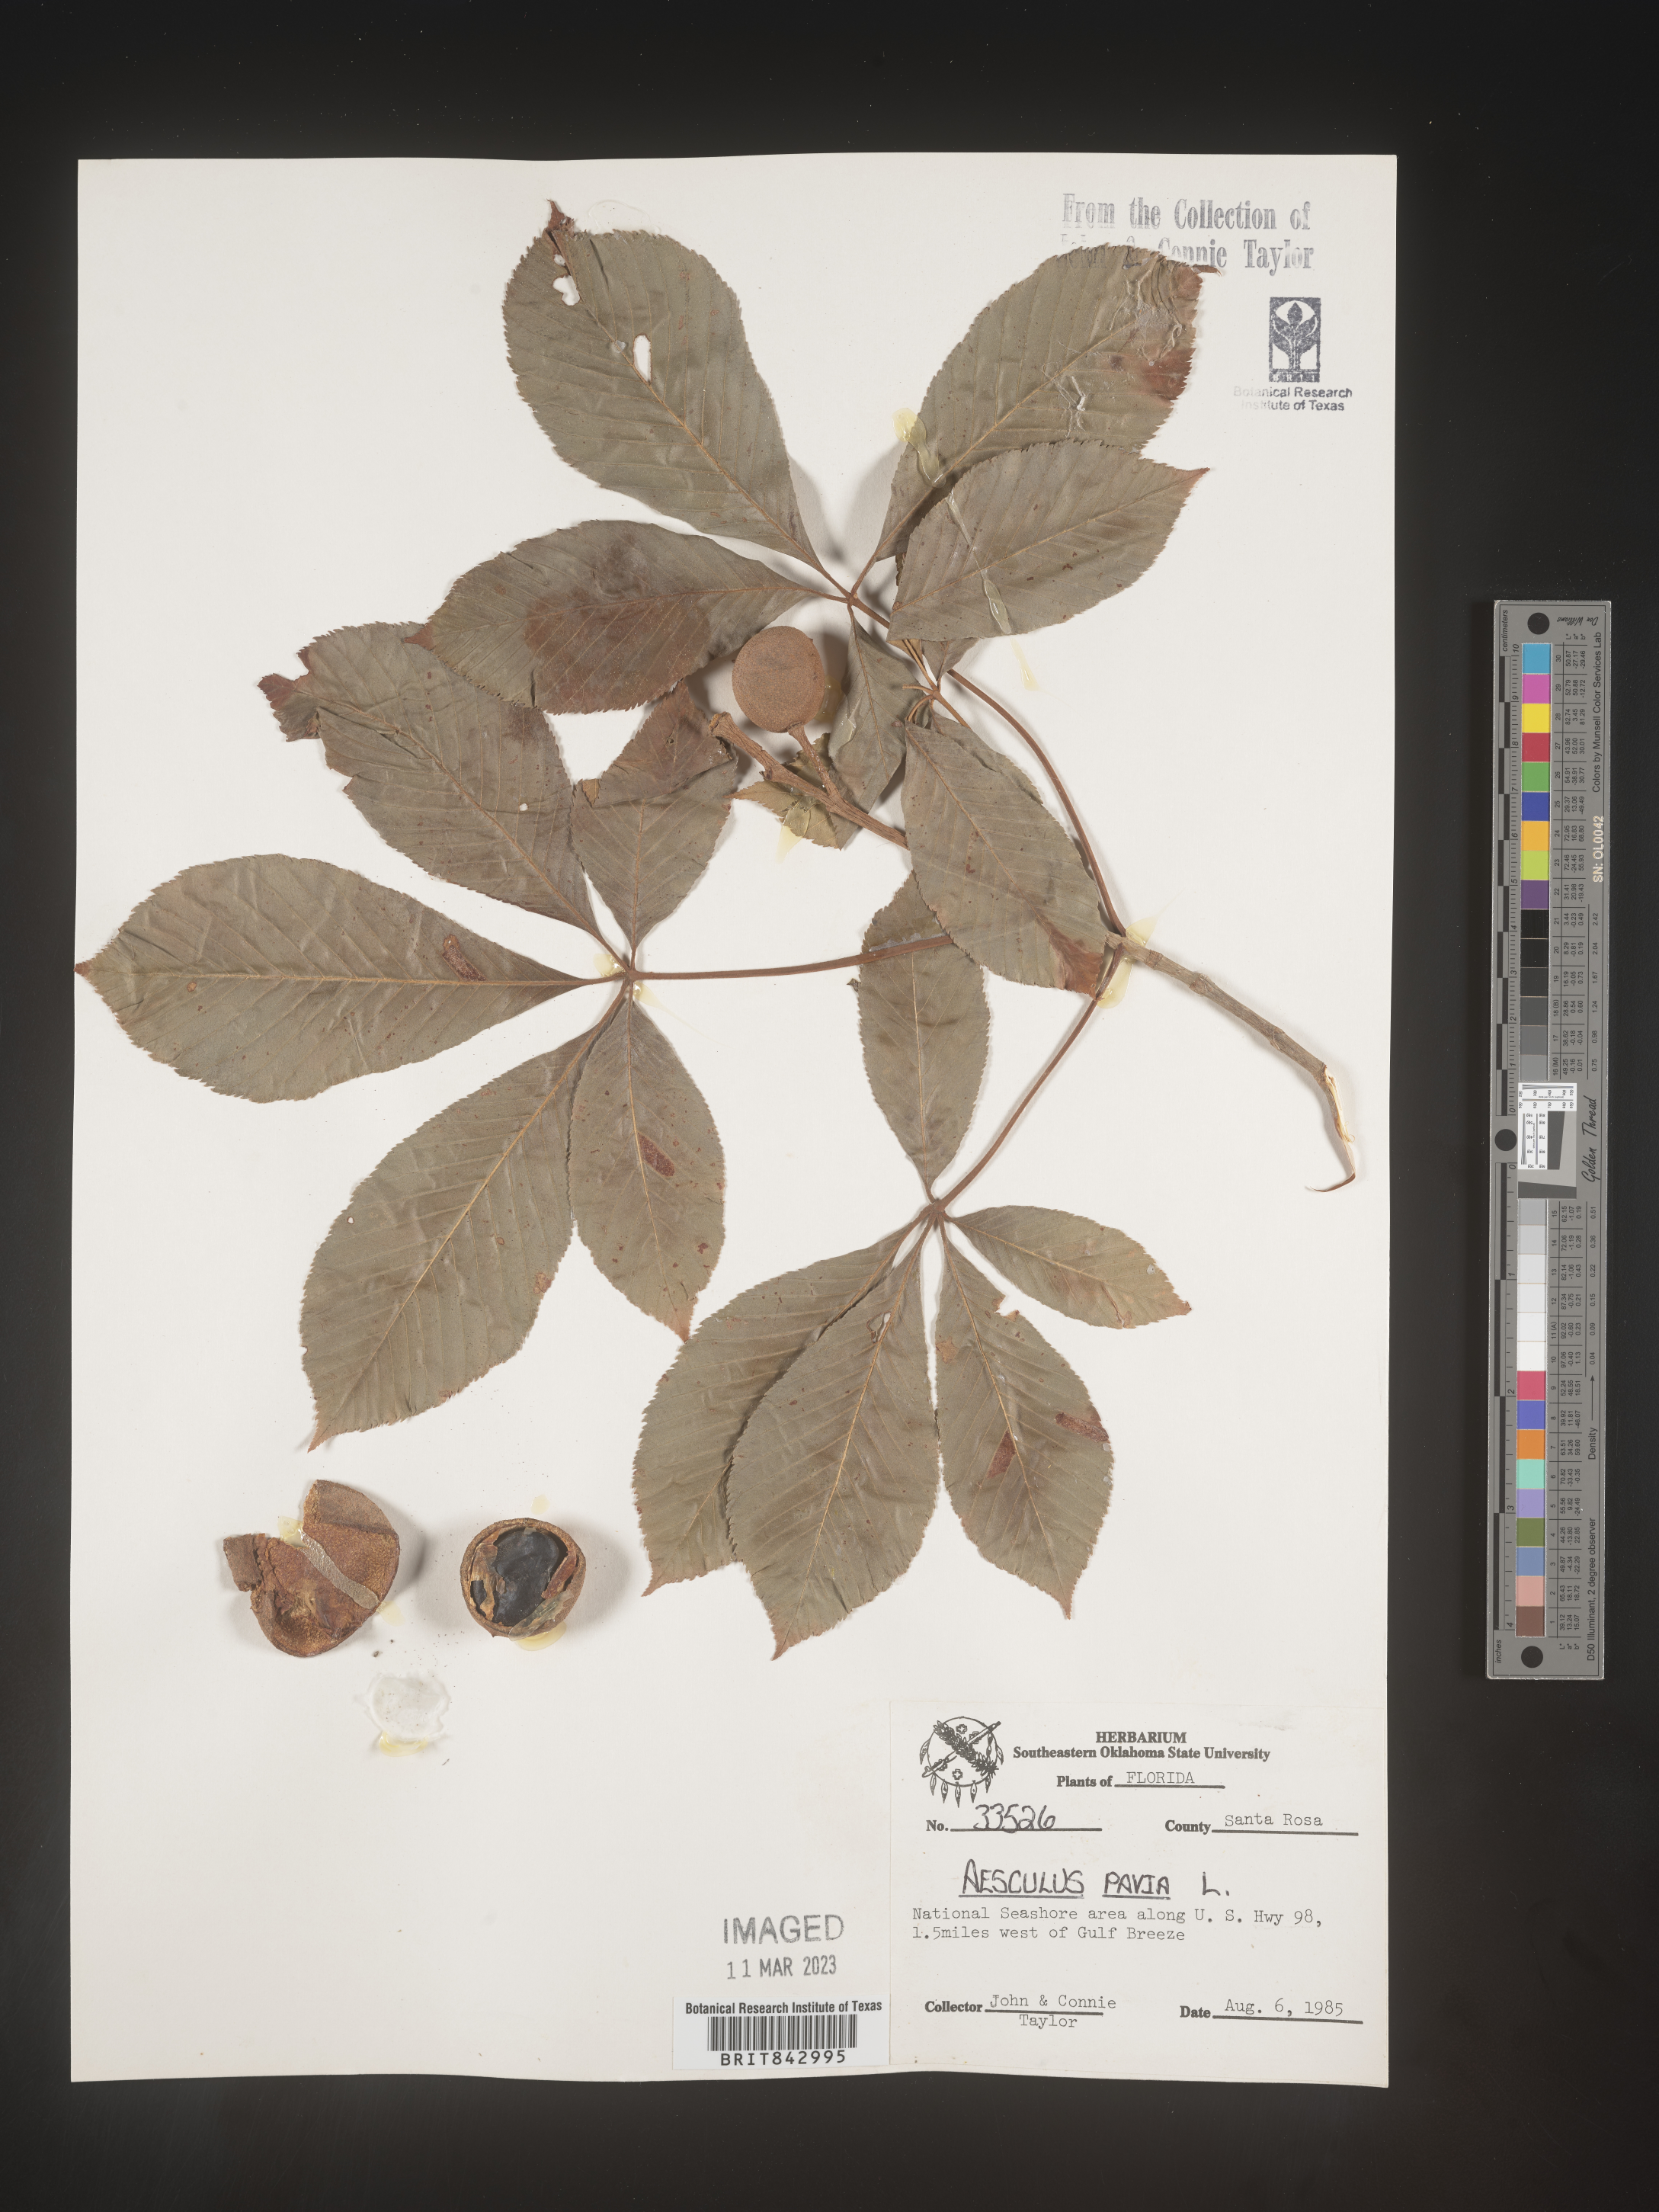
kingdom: Plantae
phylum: Tracheophyta
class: Magnoliopsida
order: Sapindales
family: Sapindaceae
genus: Aesculus
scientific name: Aesculus pavia
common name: Red buckeye
